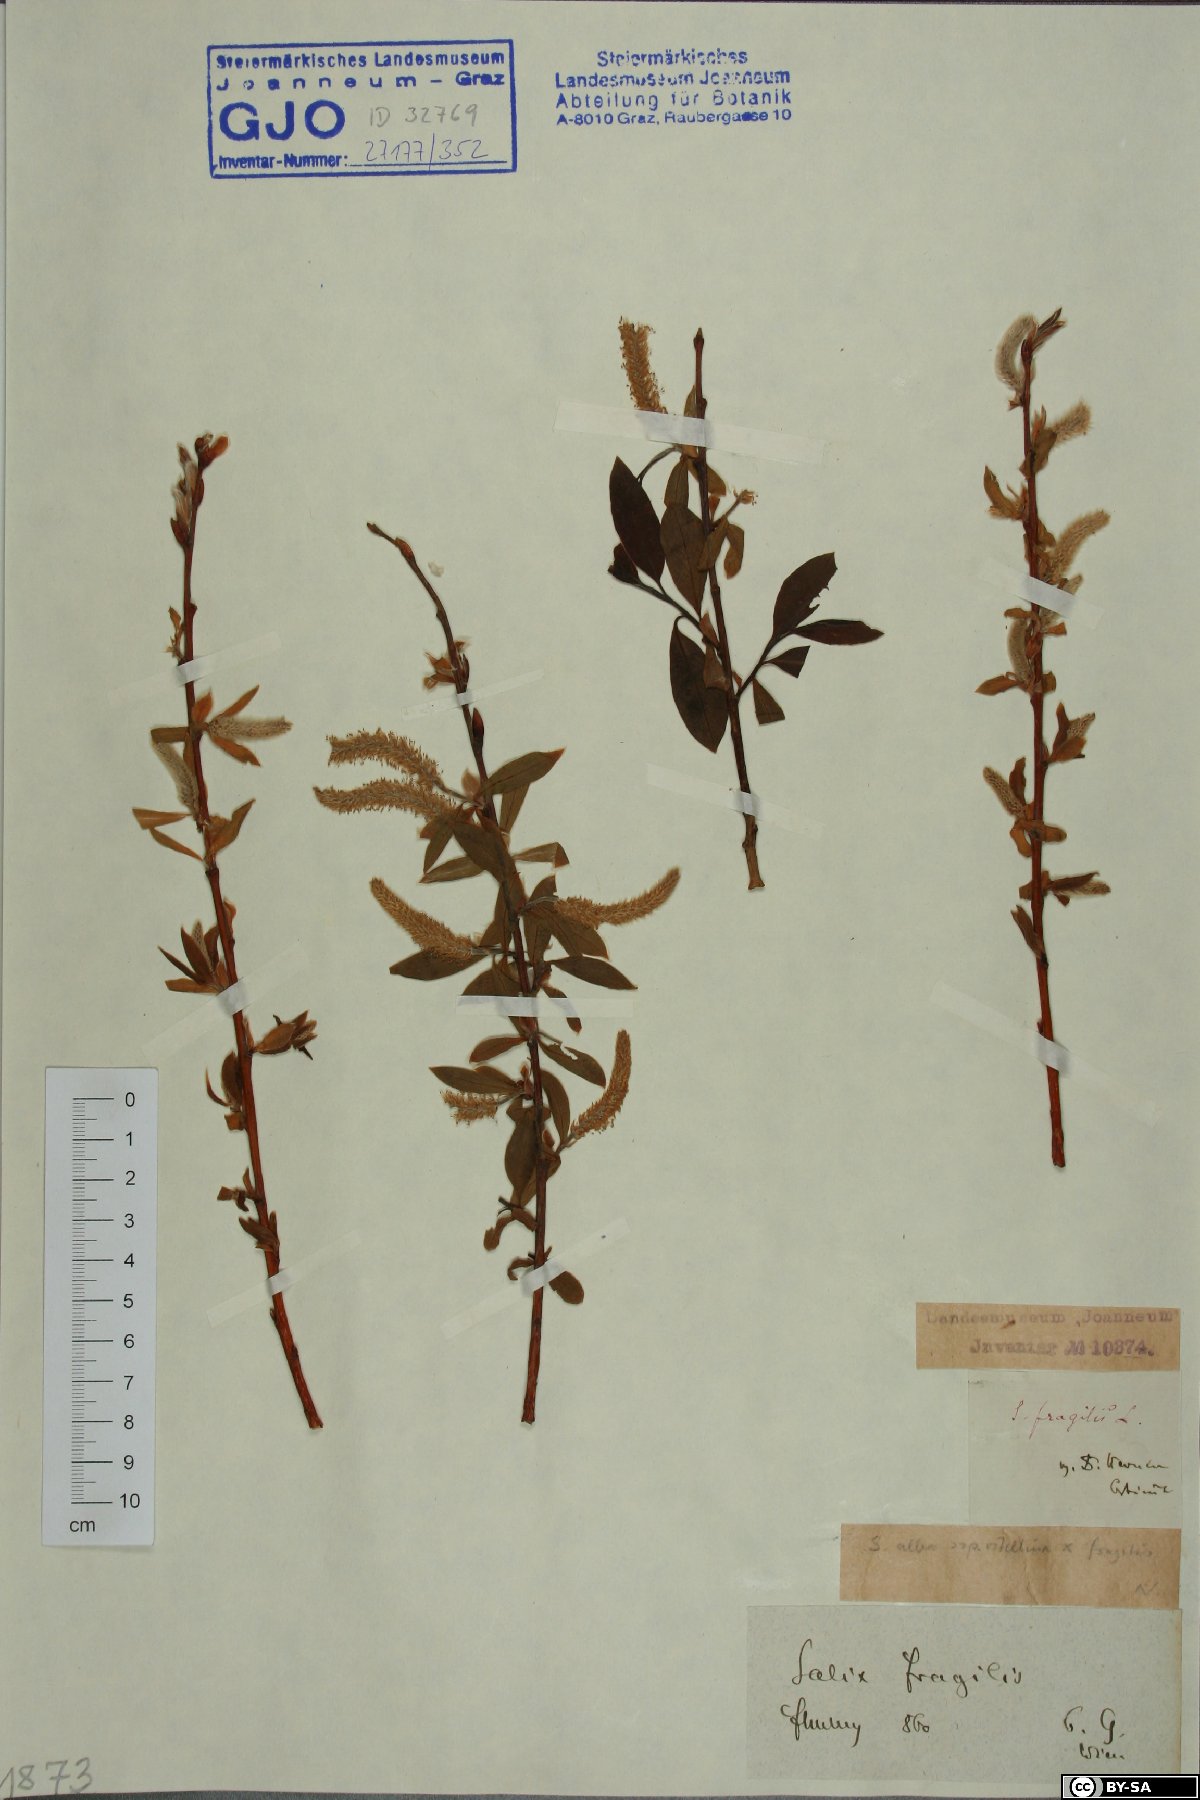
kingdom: Plantae
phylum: Tracheophyta
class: Magnoliopsida
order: Malpighiales
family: Salicaceae
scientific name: Salicaceae
